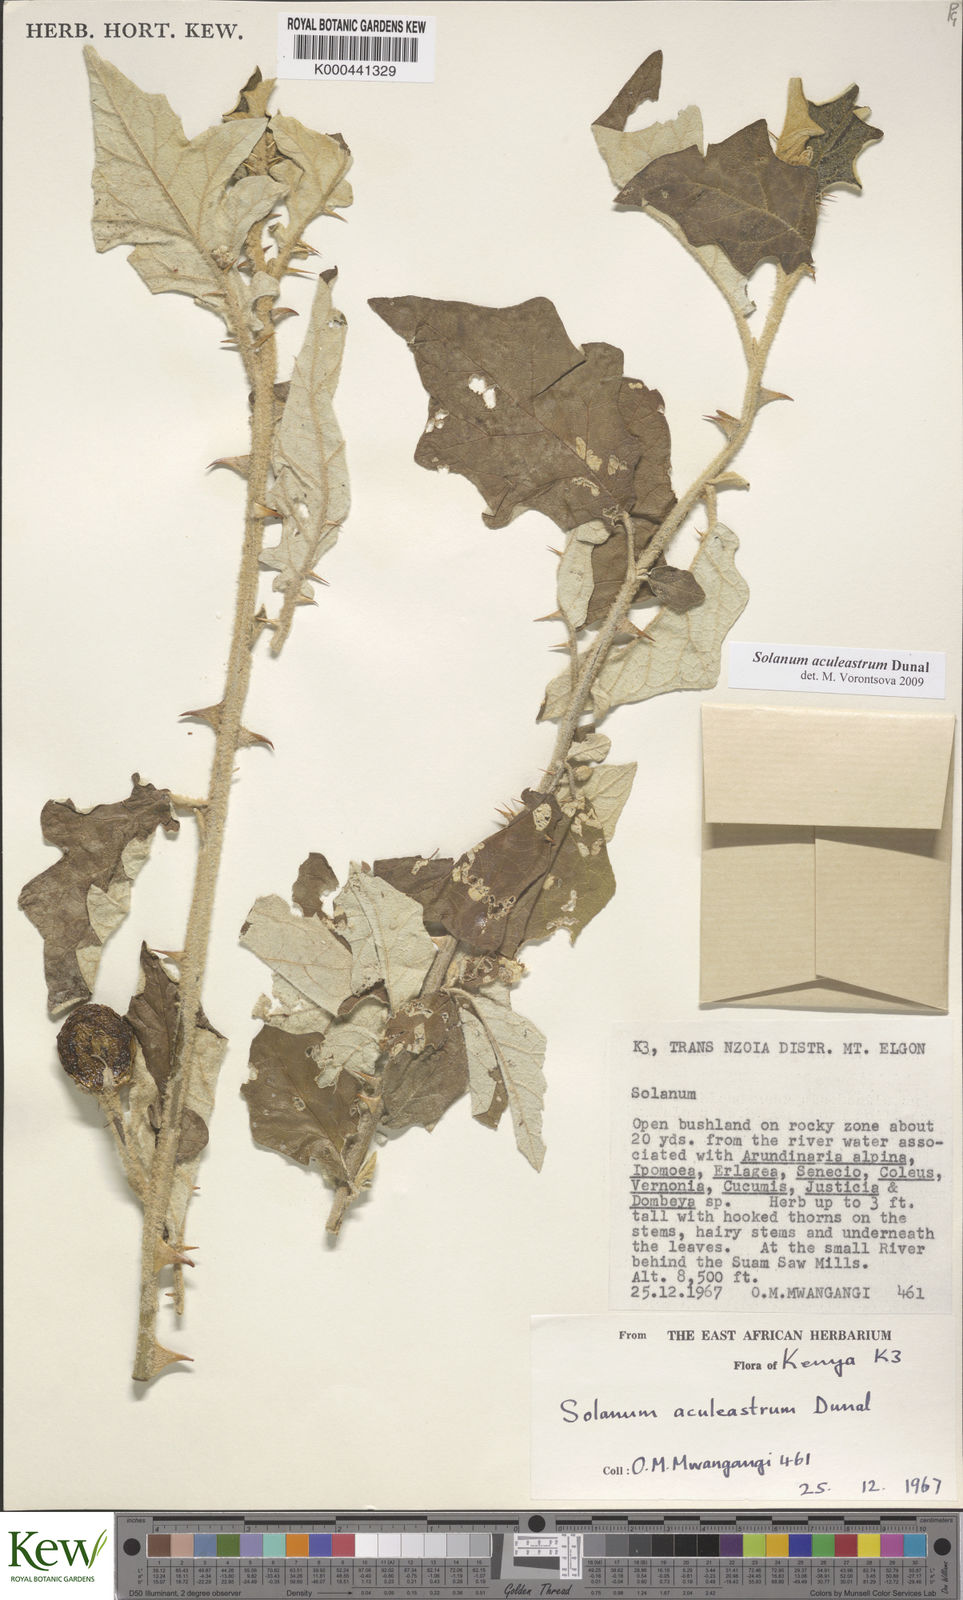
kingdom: Plantae
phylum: Tracheophyta
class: Magnoliopsida
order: Solanales
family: Solanaceae
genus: Solanum
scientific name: Solanum aculeastrum
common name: Goat bitter-apple
